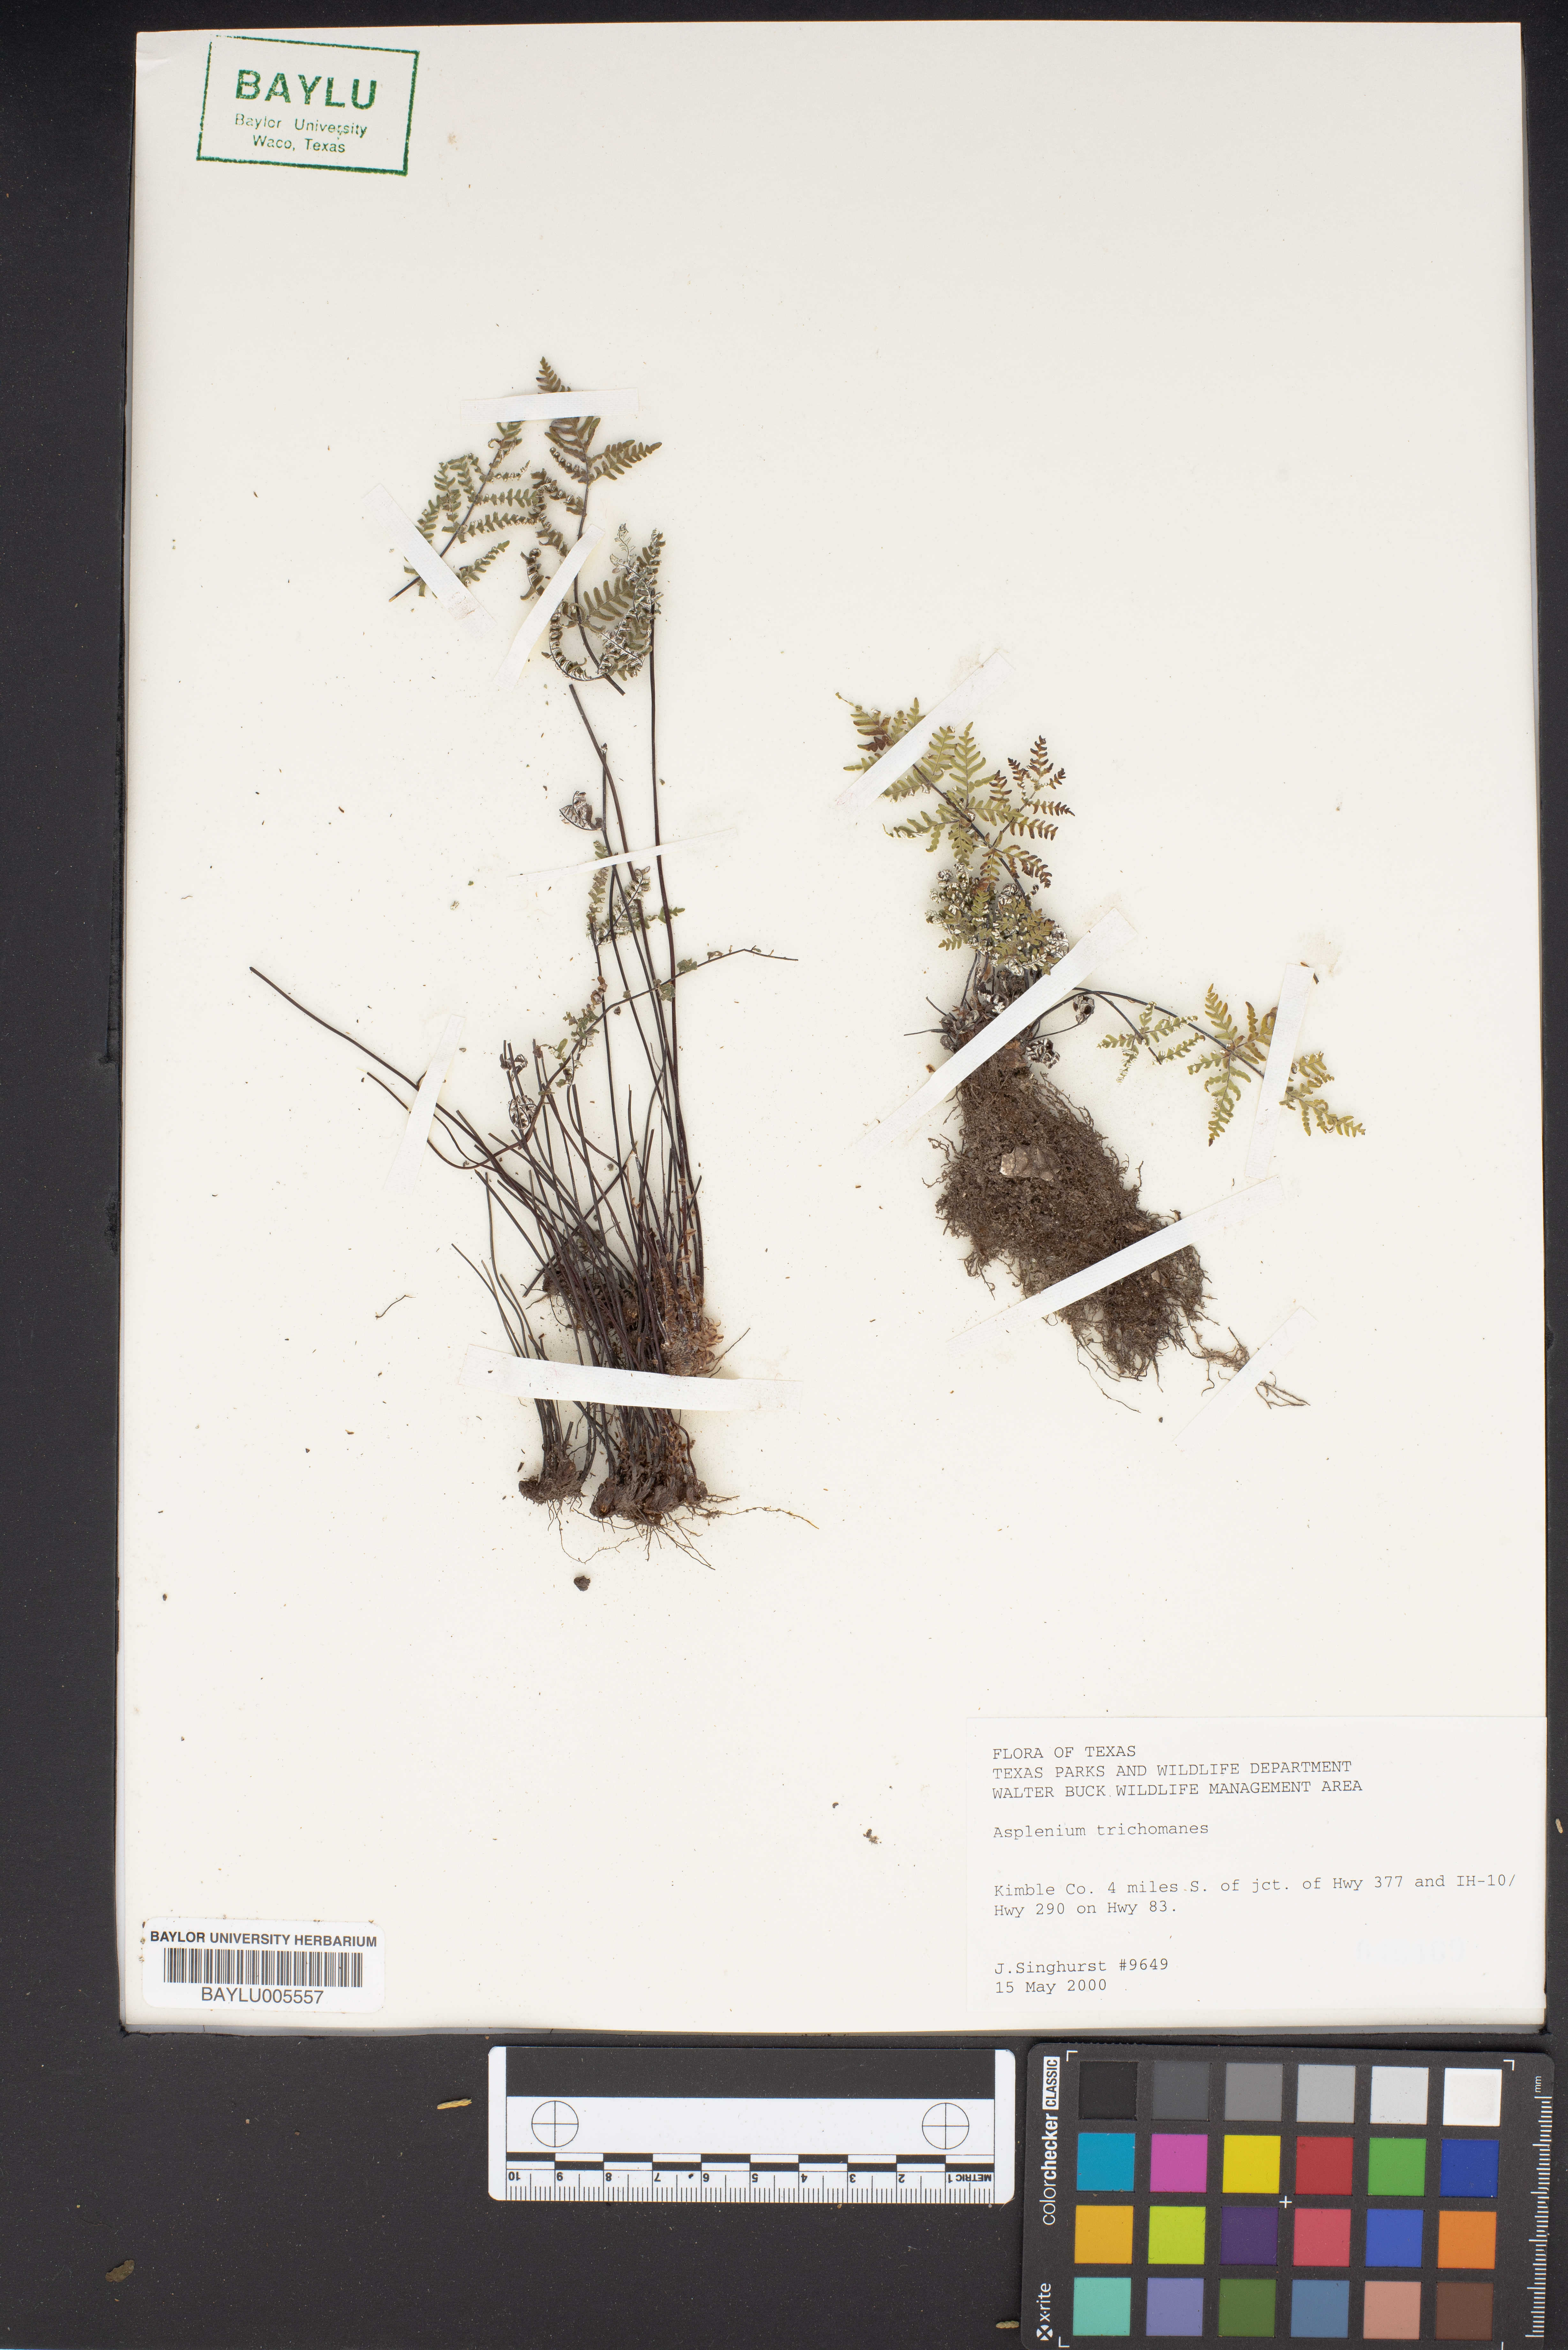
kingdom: Plantae
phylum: Tracheophyta
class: Polypodiopsida
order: Polypodiales
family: Aspleniaceae
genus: Asplenium
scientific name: Asplenium trichomanes
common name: Maidenhair spleenwort
